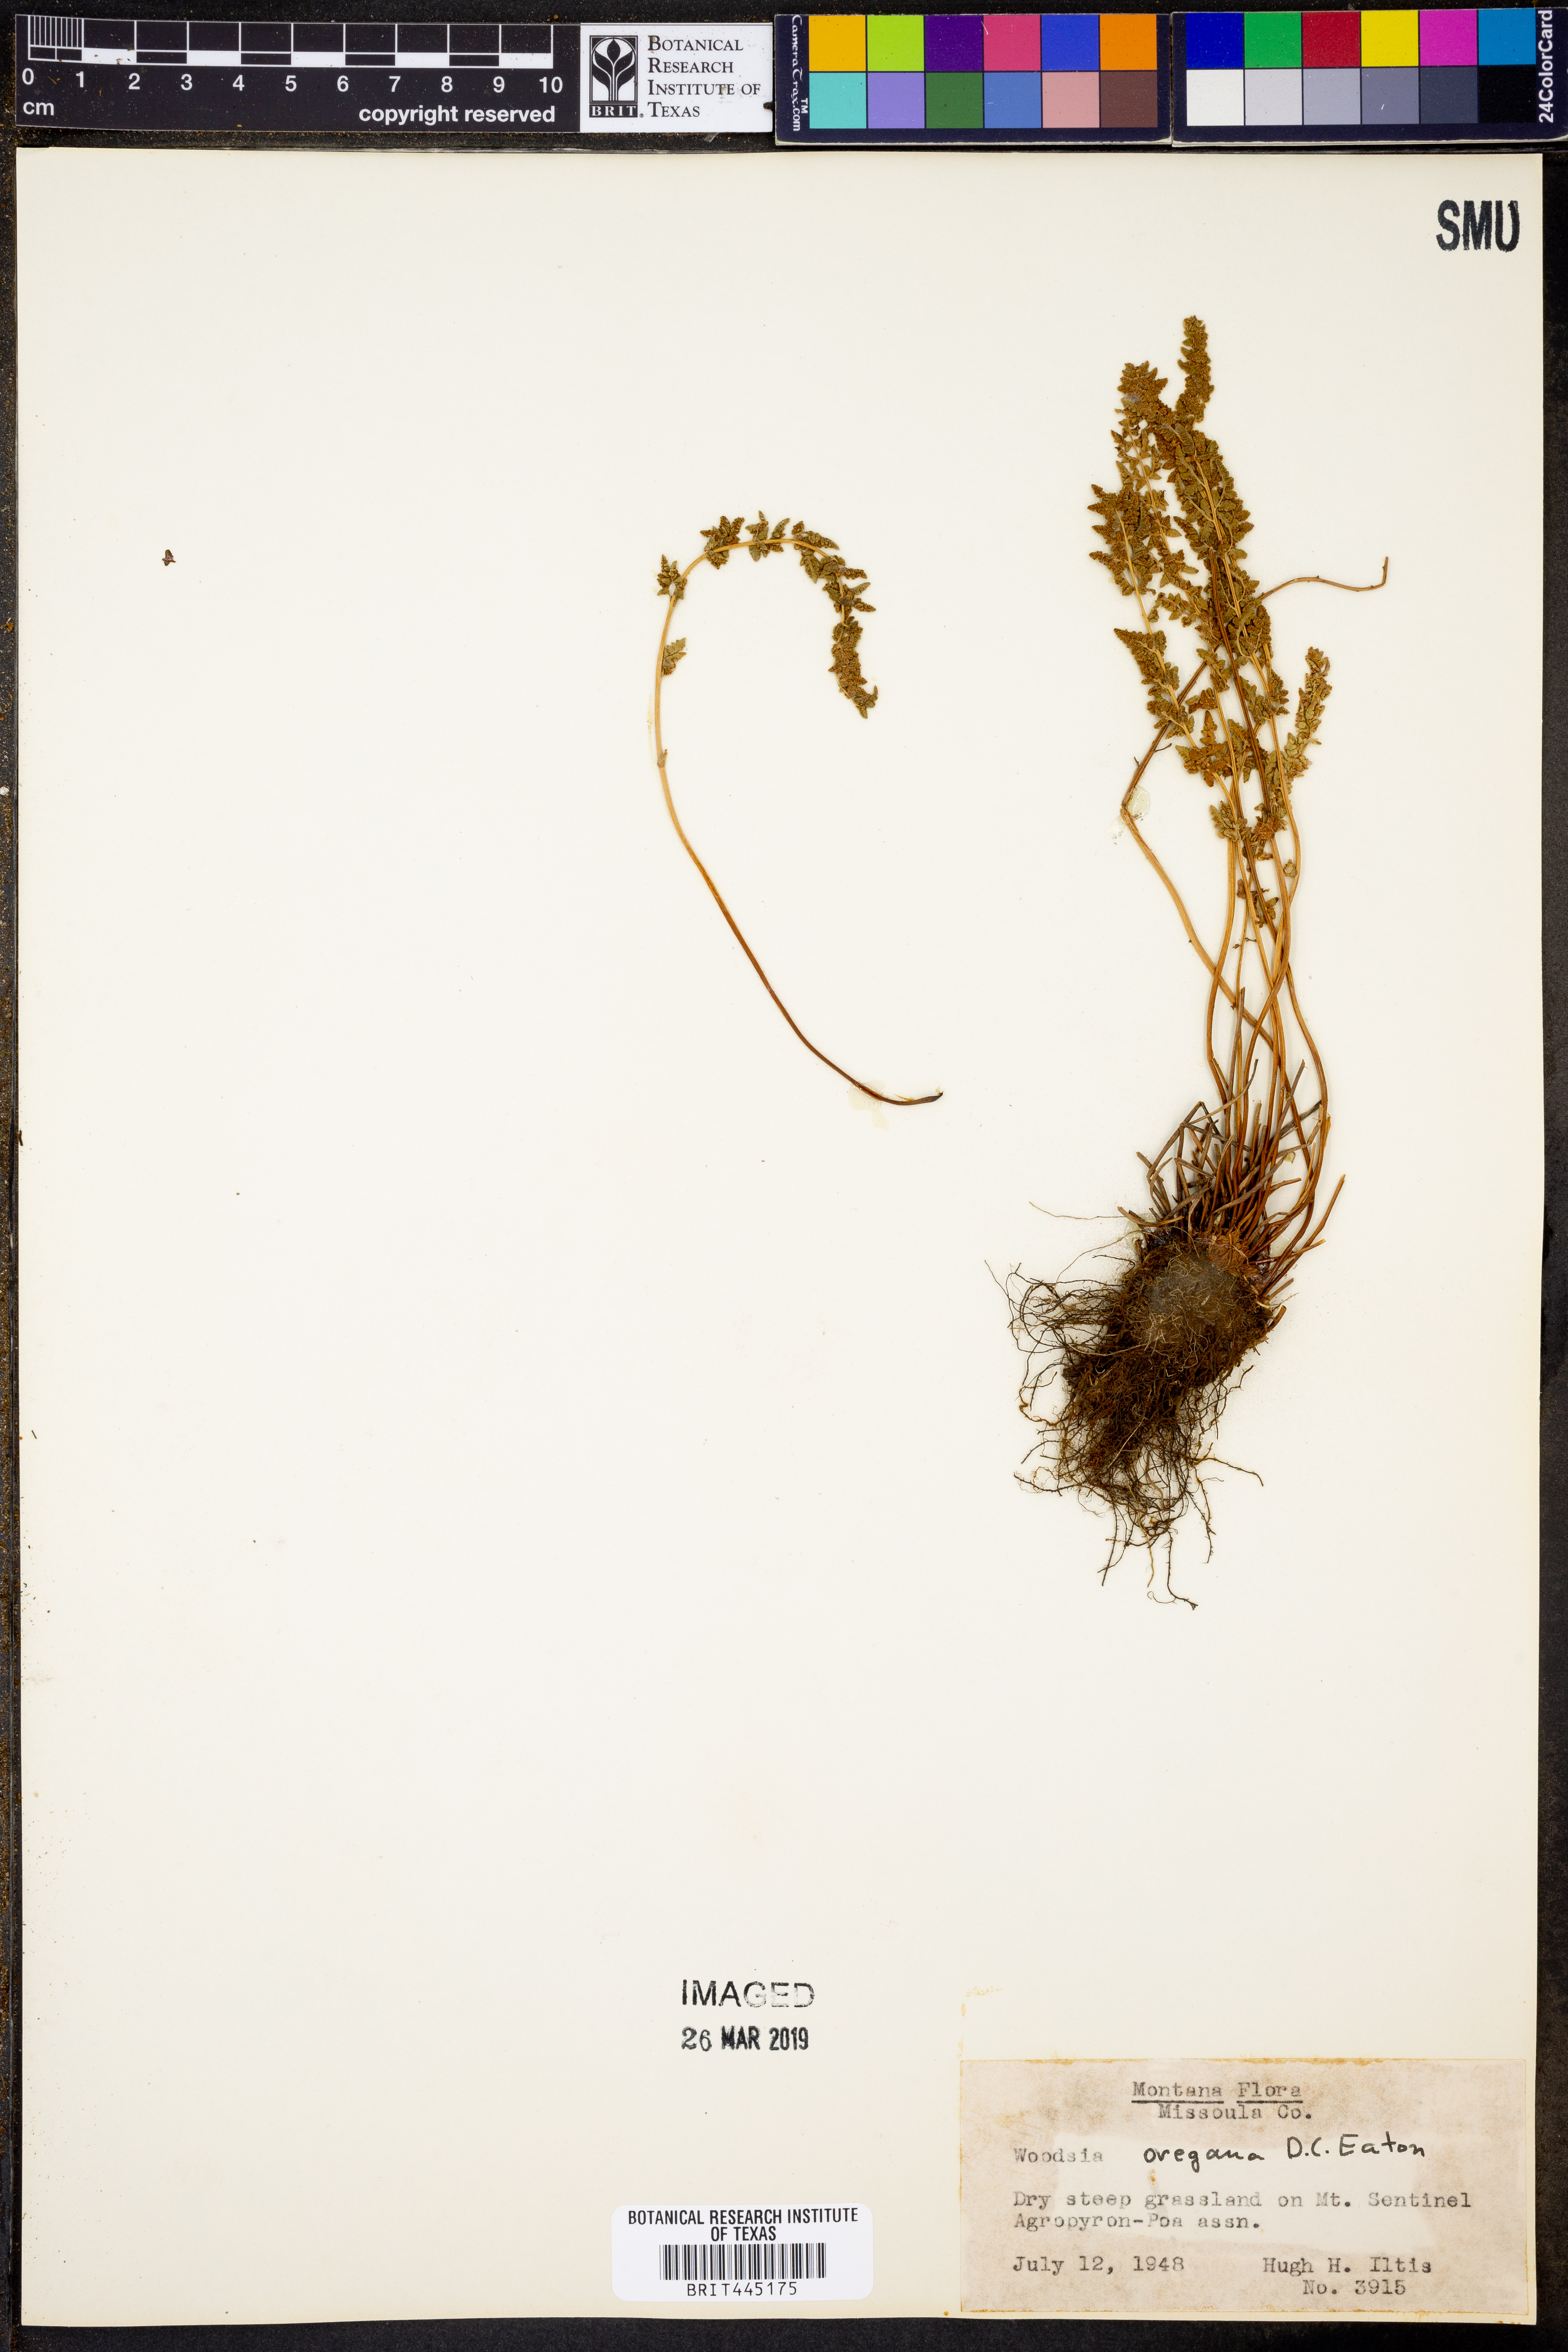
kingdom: Plantae
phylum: Tracheophyta
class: Polypodiopsida
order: Polypodiales
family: Woodsiaceae
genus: Physematium
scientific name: Physematium oreganum
